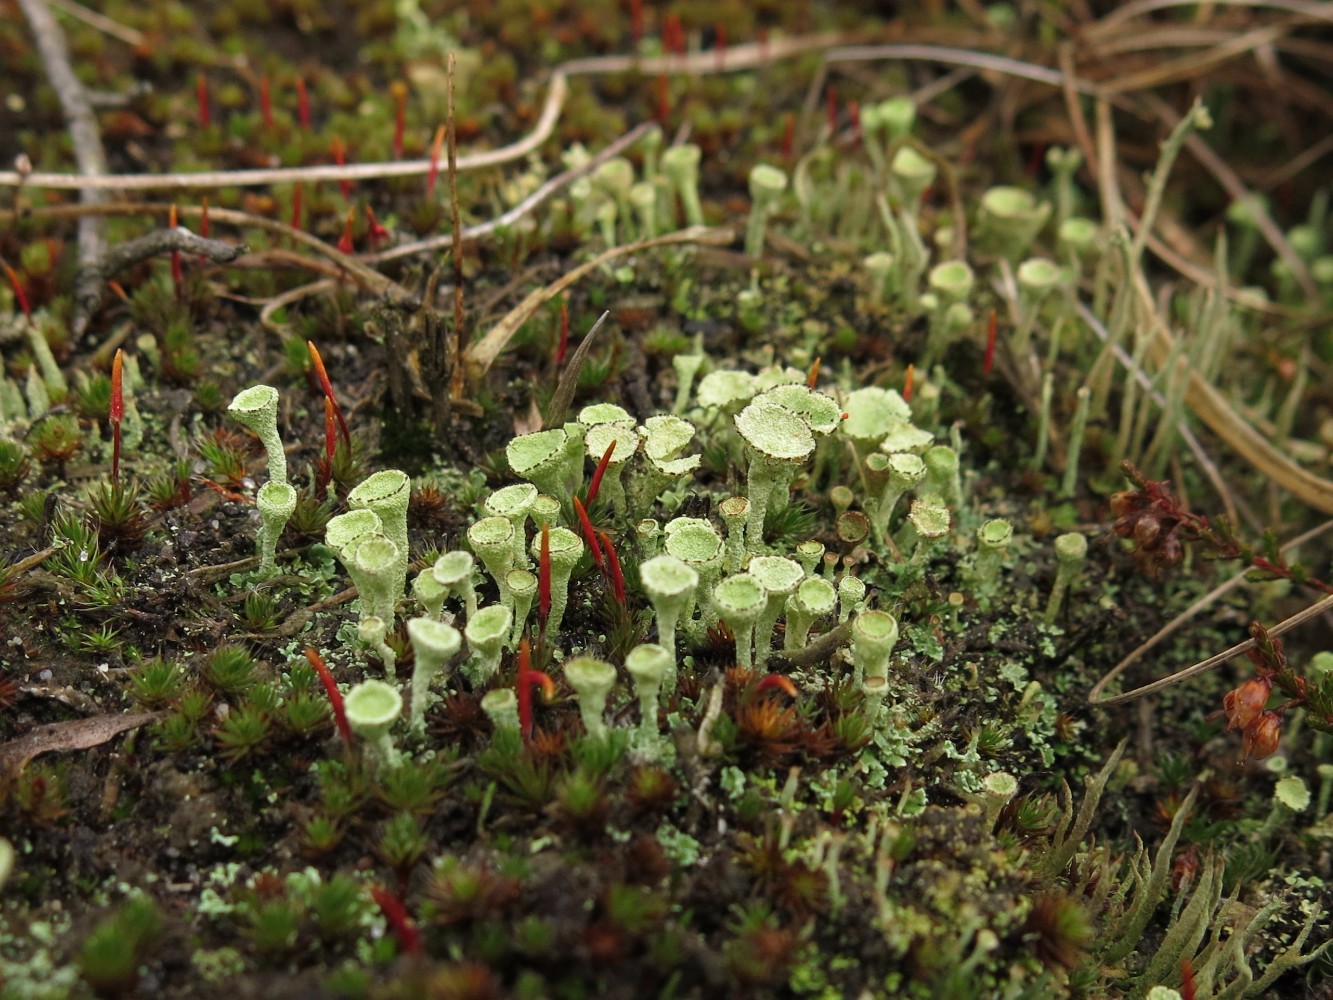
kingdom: Fungi
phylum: Ascomycota
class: Lecanoromycetes
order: Lecanorales
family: Cladoniaceae
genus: Cladonia
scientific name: Cladonia fimbriata
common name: bleggrøn bægerlav
